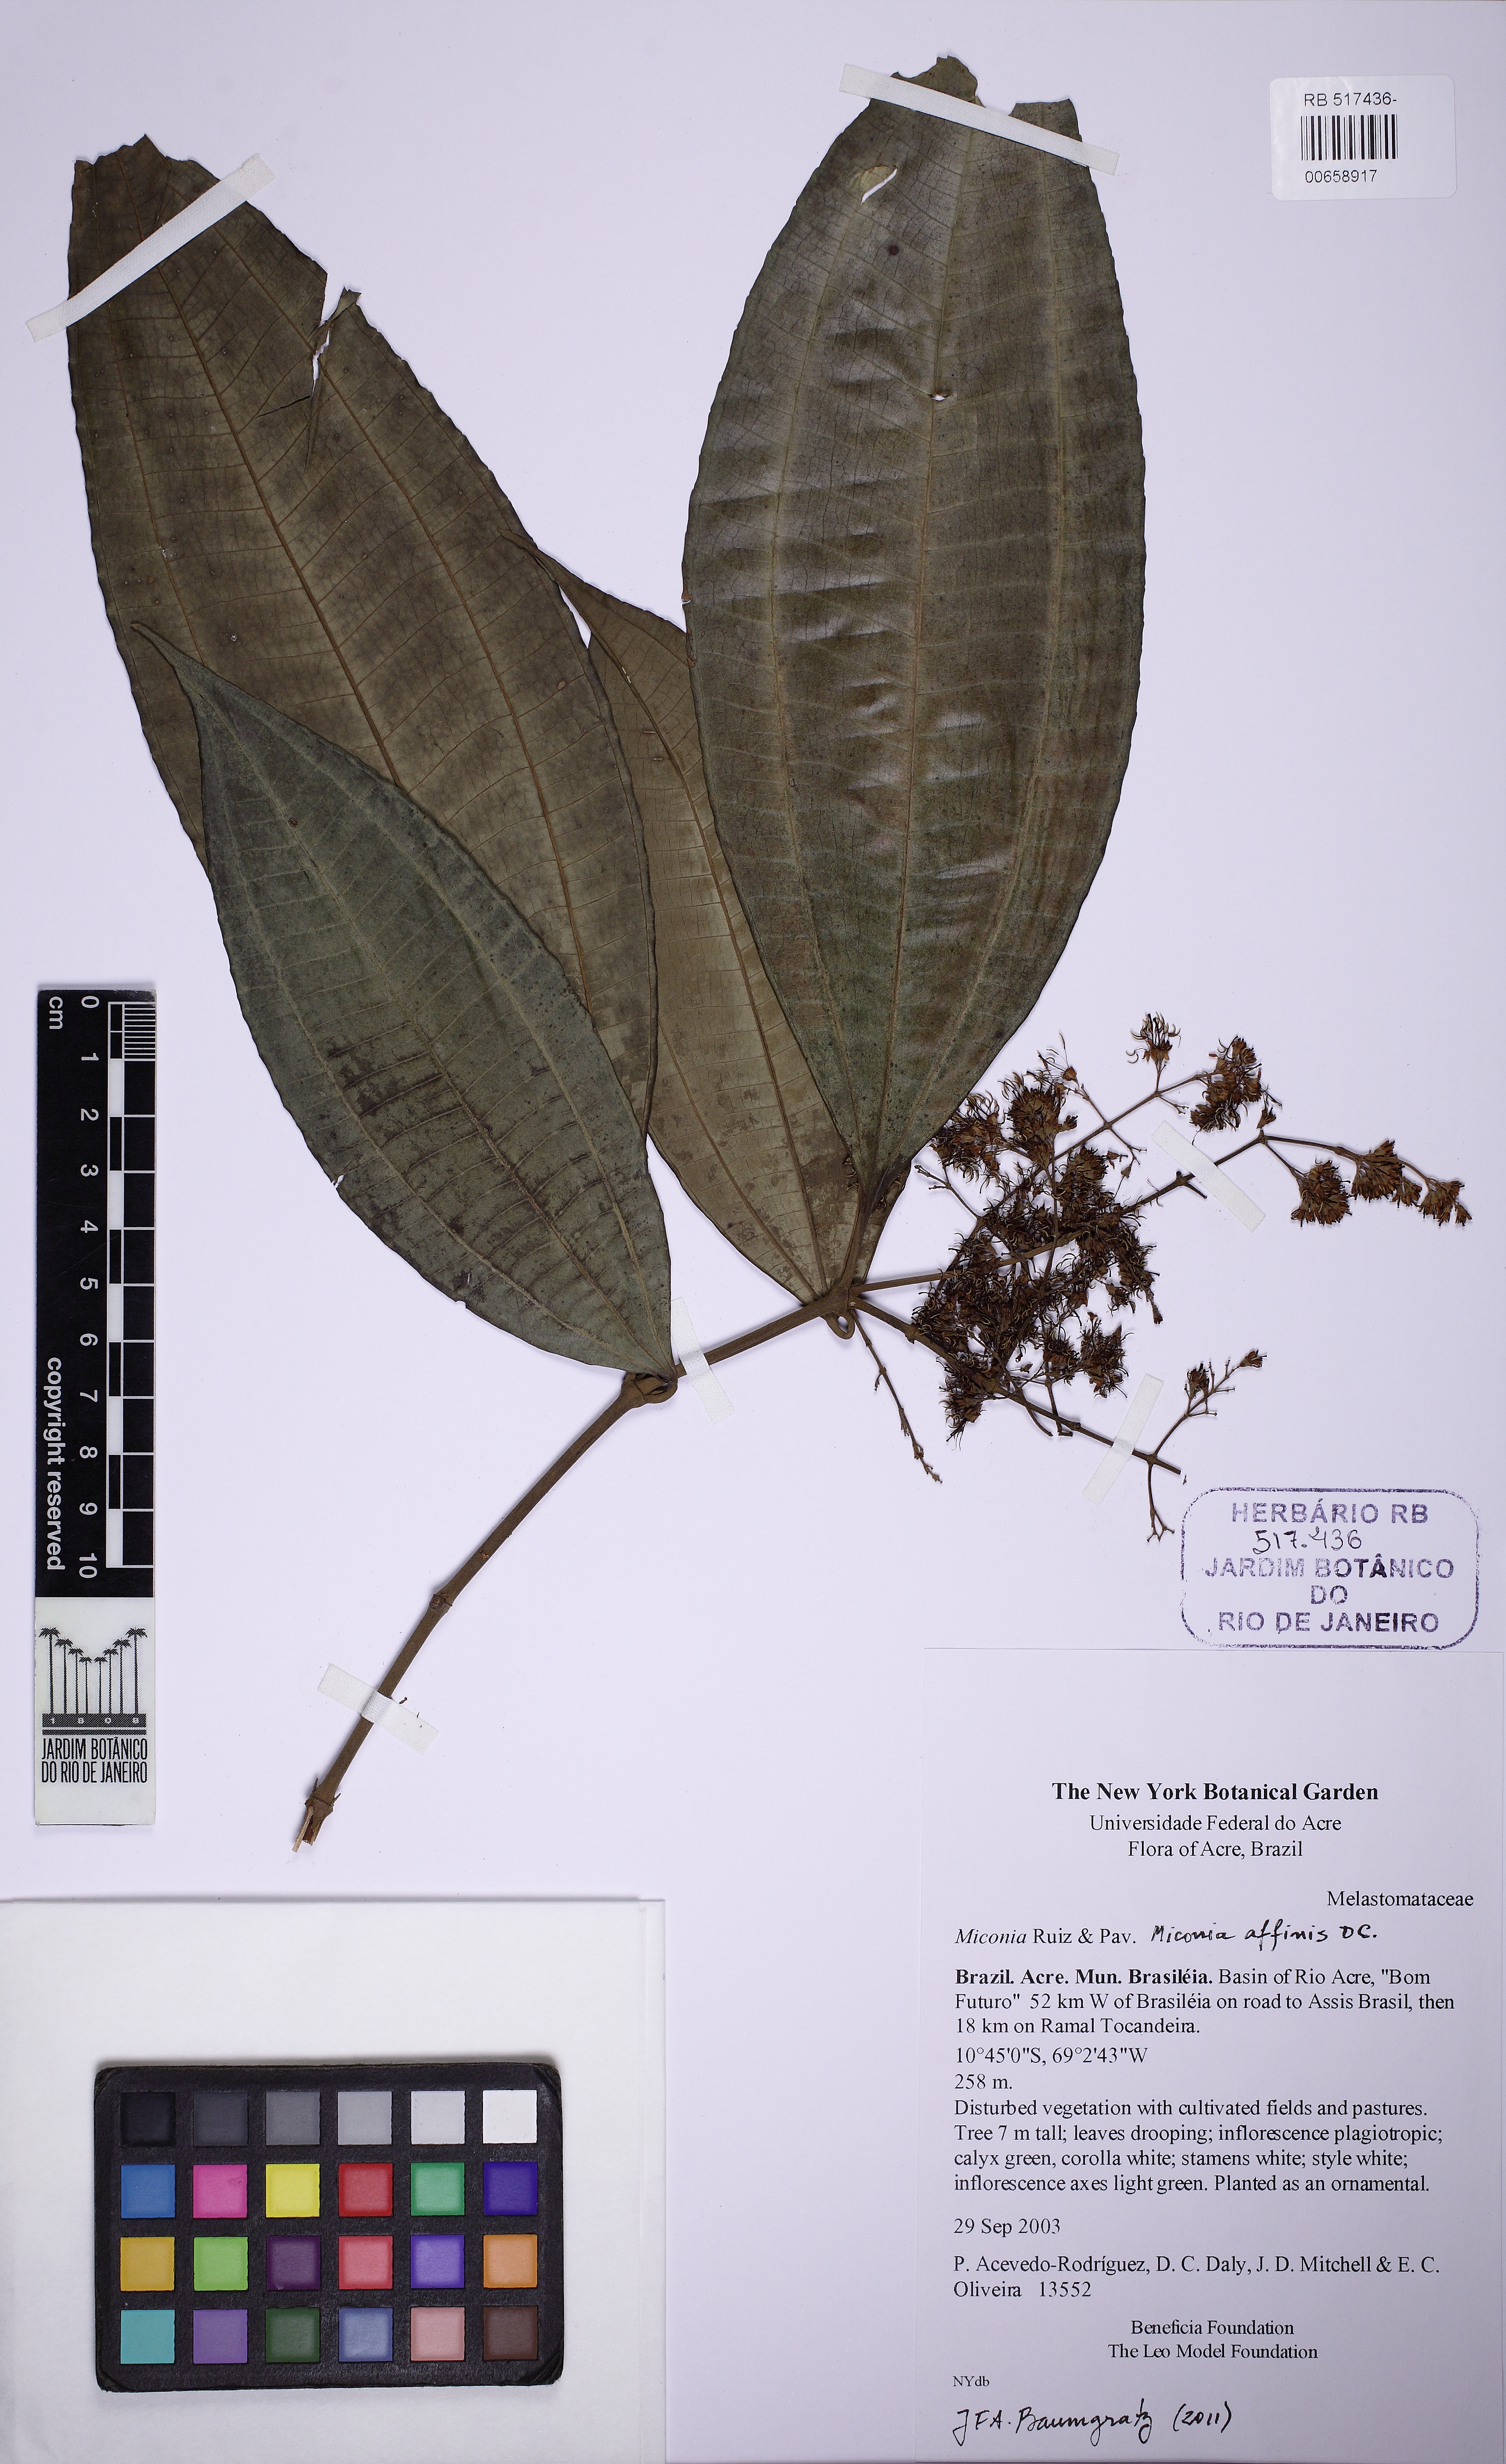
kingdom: Plantae
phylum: Tracheophyta
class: Magnoliopsida
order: Myrtales
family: Melastomataceae
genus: Miconia
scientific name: Miconia affinis
